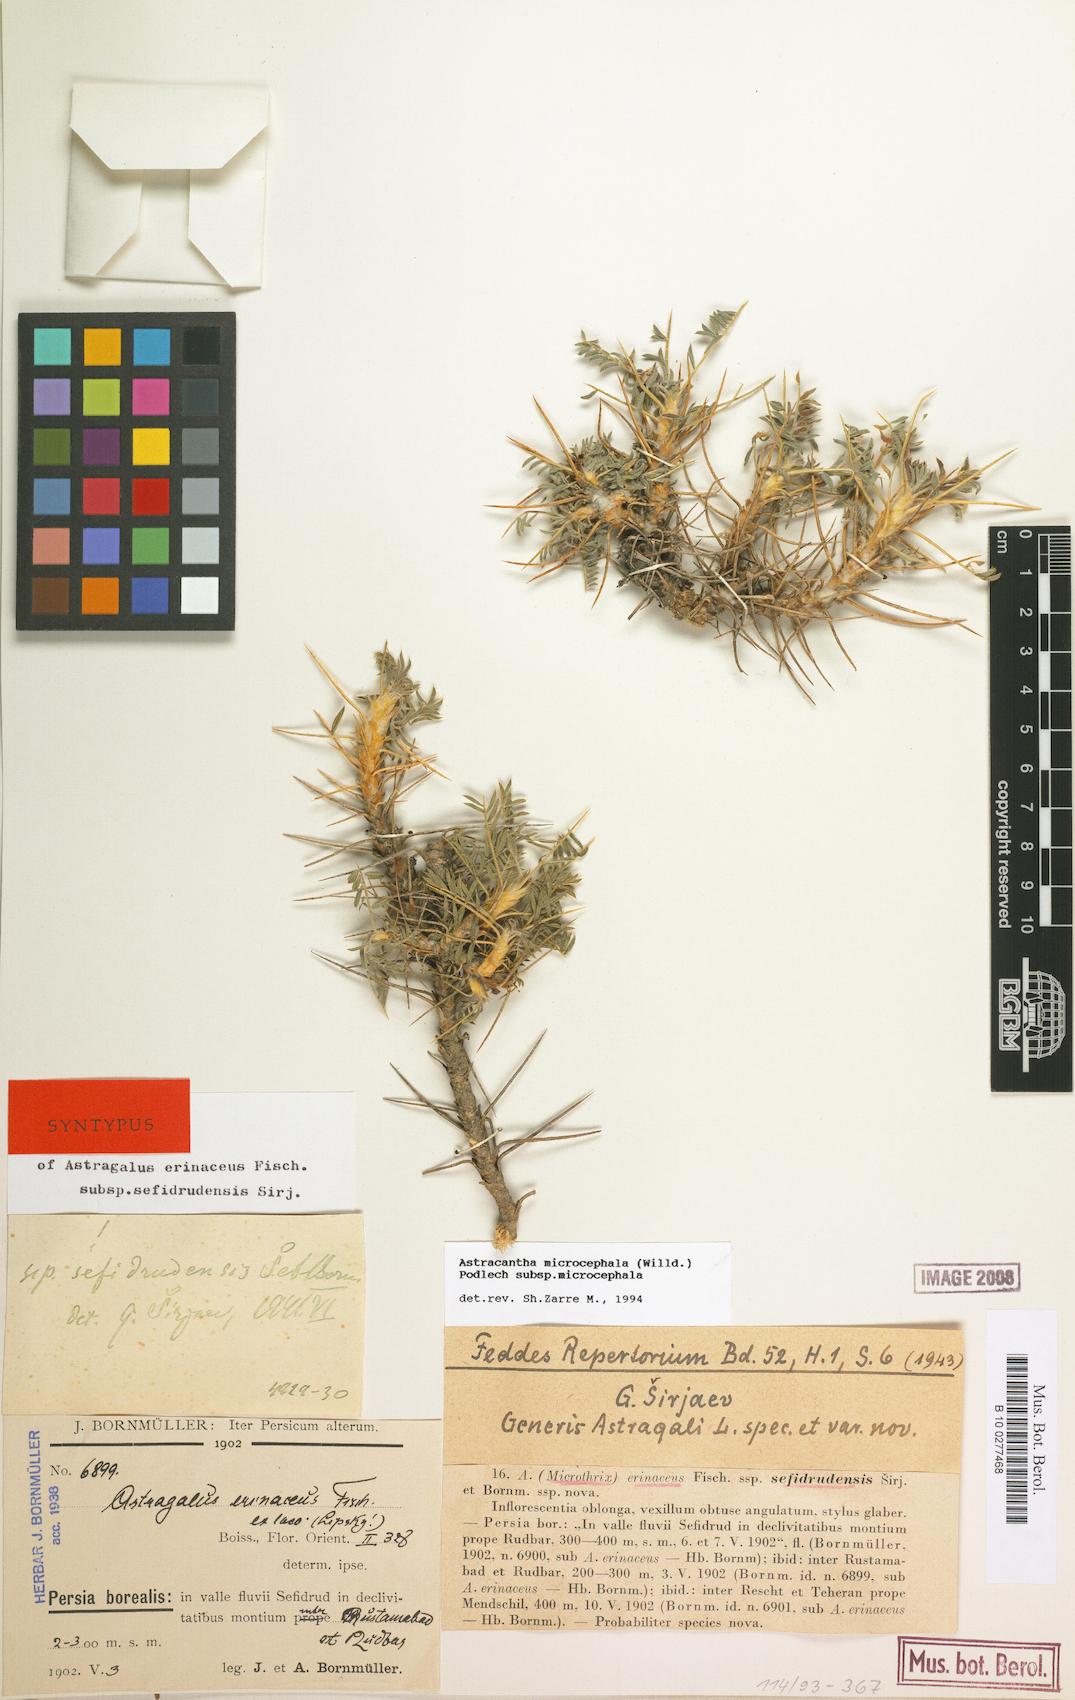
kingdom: Plantae
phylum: Tracheophyta
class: Magnoliopsida
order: Fabales
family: Fabaceae
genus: Astragalus
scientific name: Astragalus microcephalus
